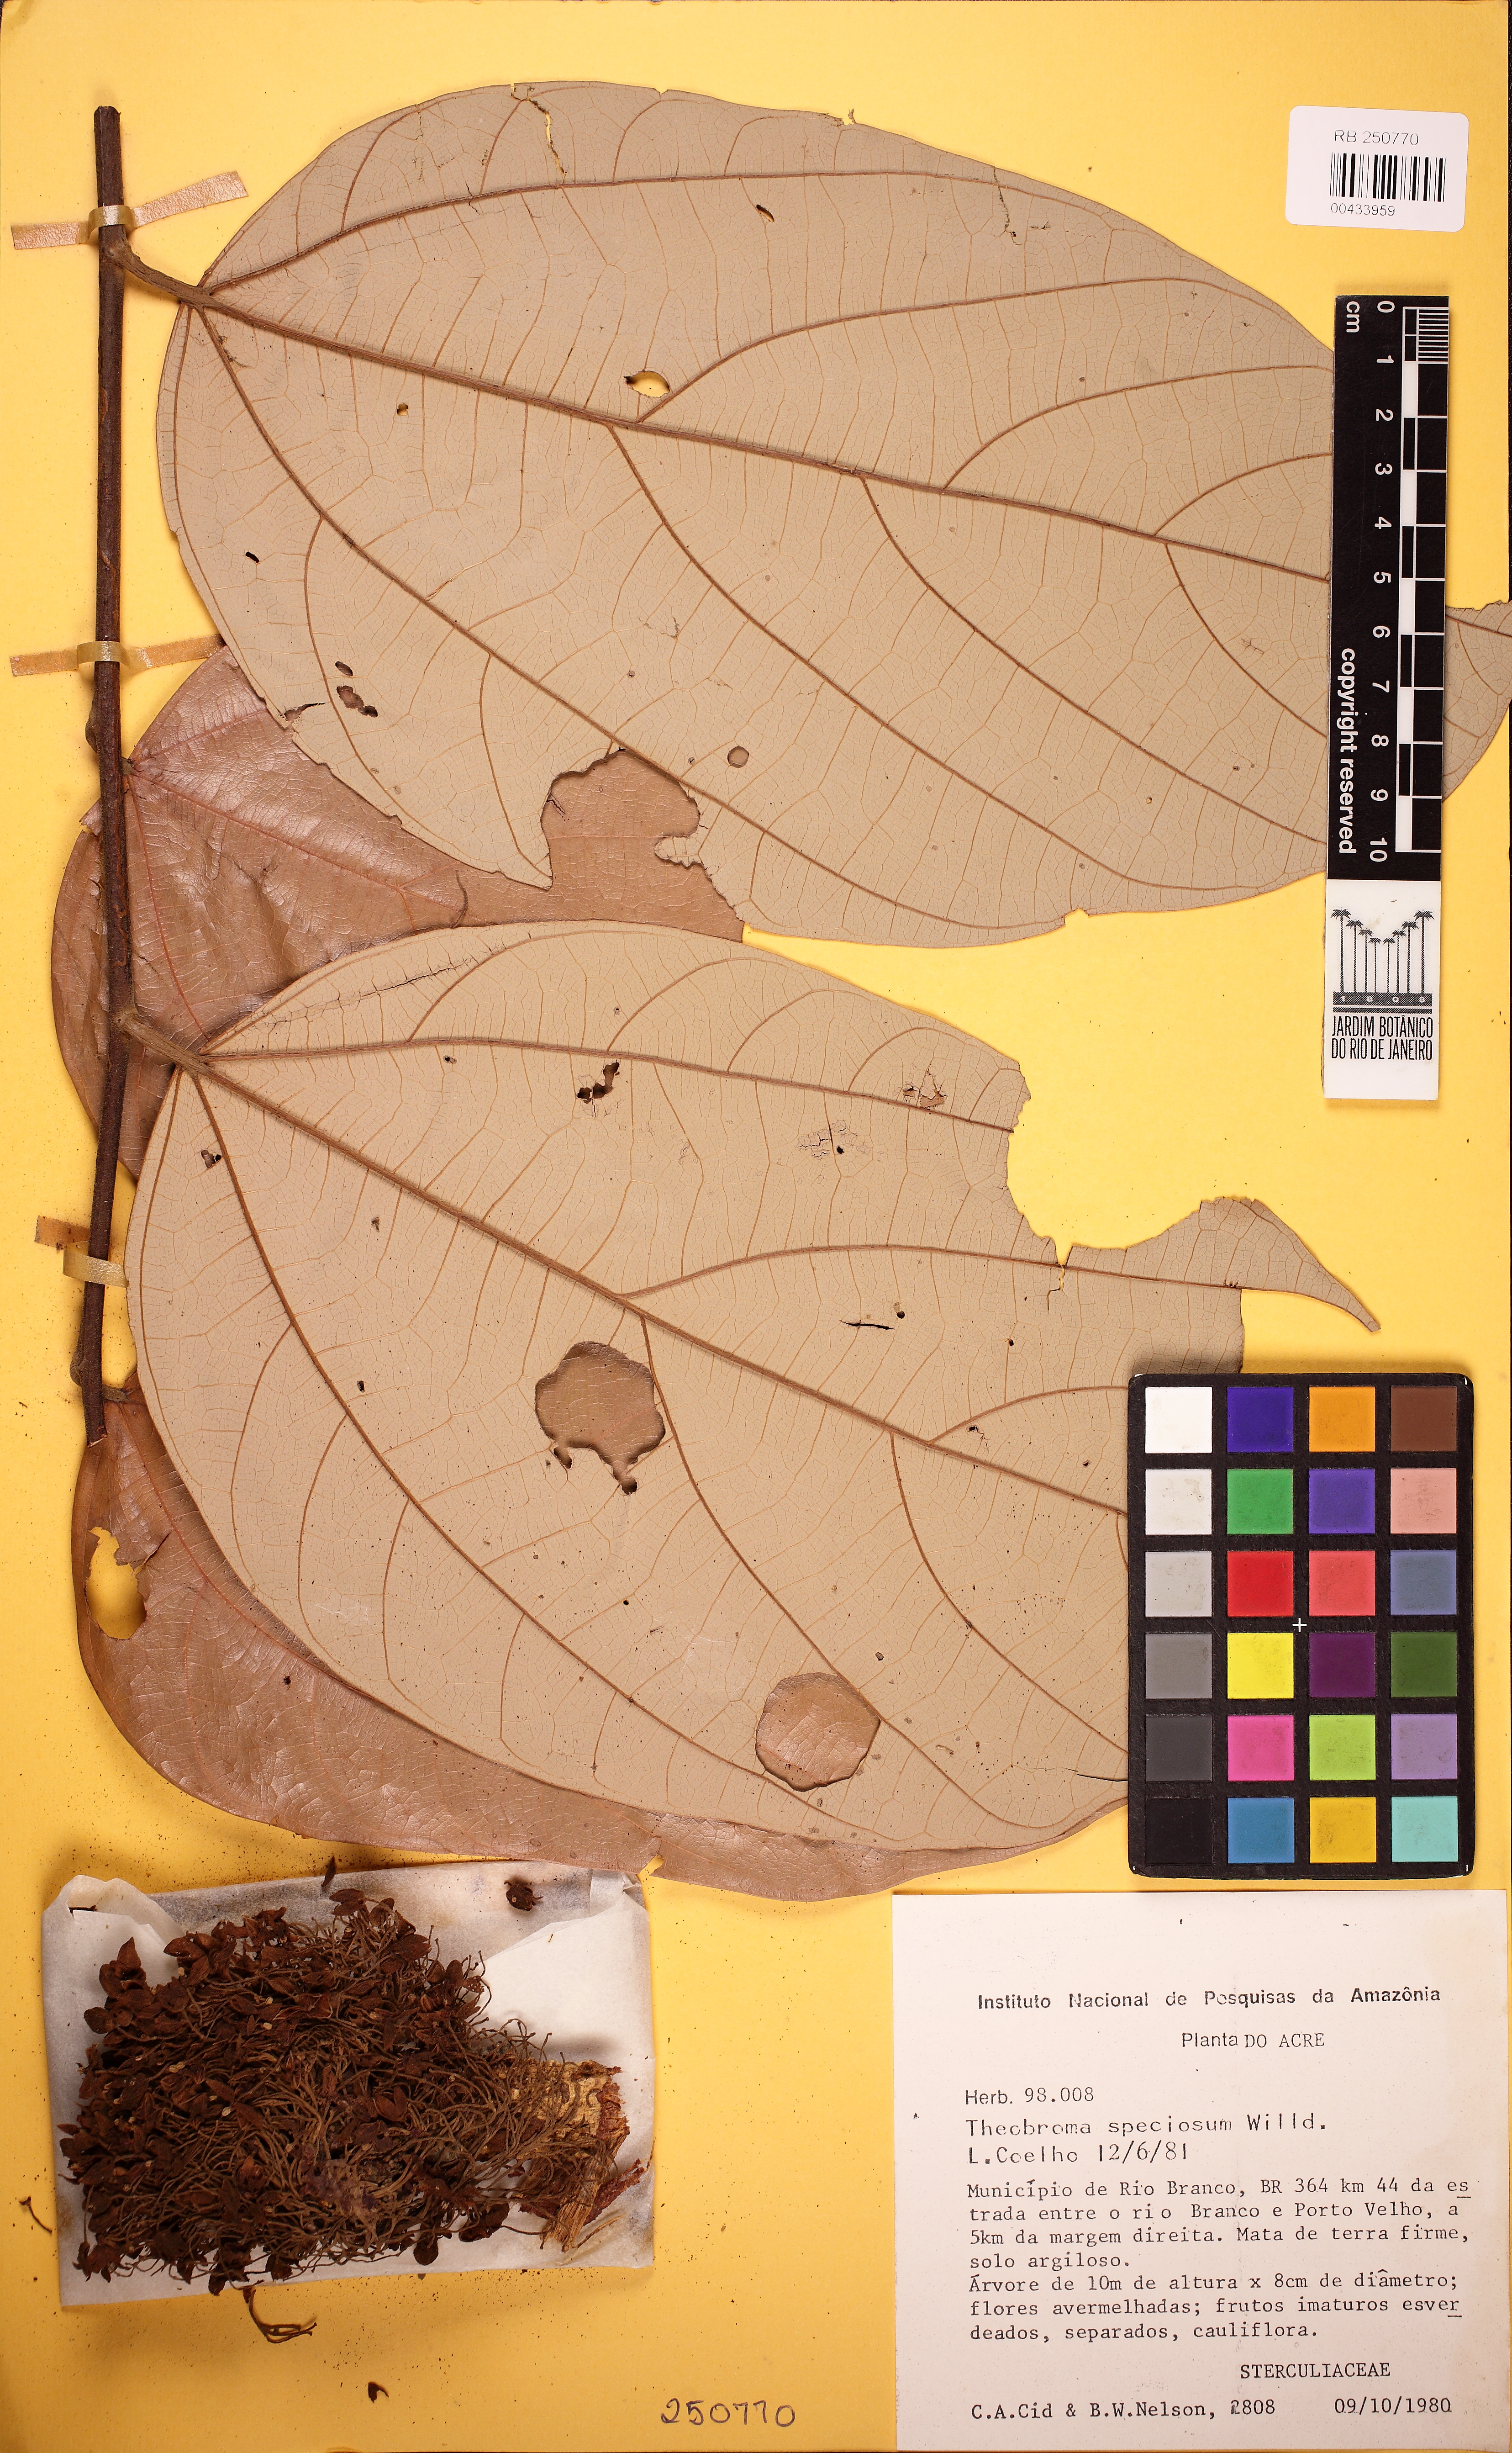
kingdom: Plantae
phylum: Tracheophyta
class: Magnoliopsida
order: Malvales
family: Malvaceae
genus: Theobroma
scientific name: Theobroma speciosum
